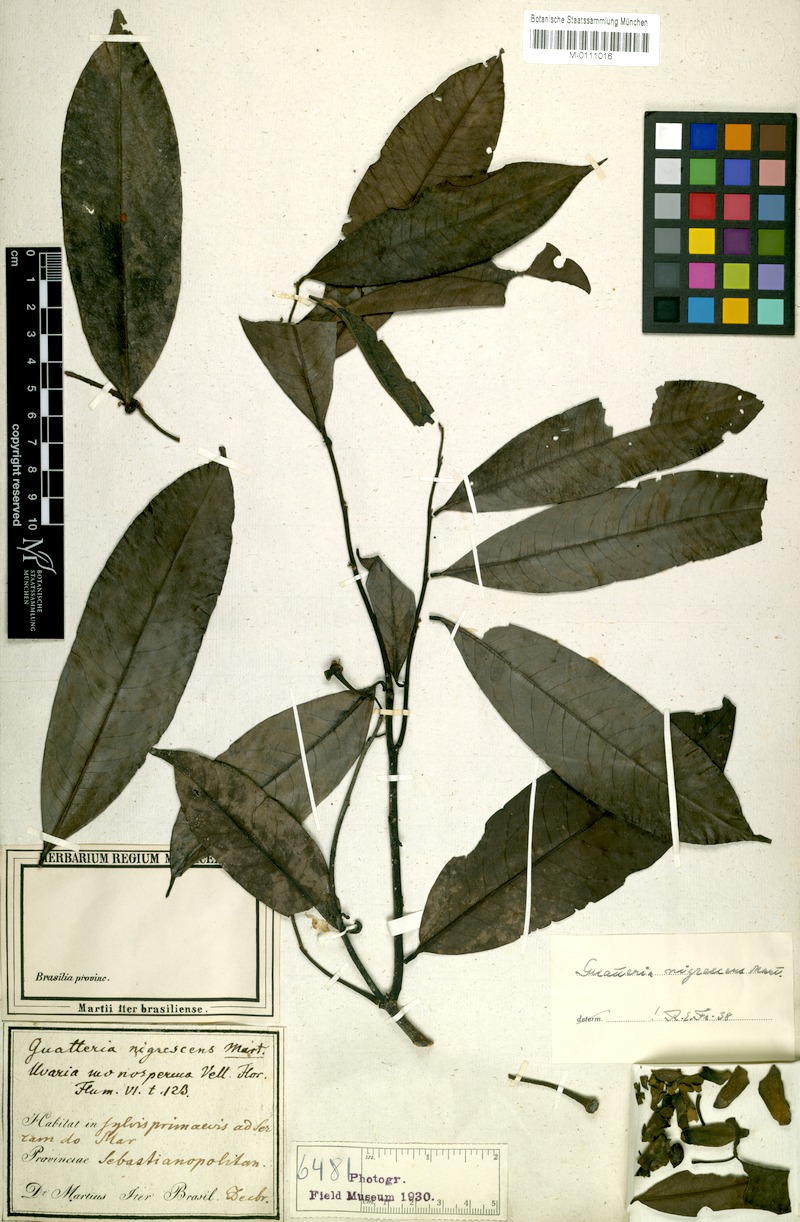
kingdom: Plantae
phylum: Tracheophyta
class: Magnoliopsida
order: Magnoliales
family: Annonaceae
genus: Guatteria
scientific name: Guatteria australis
